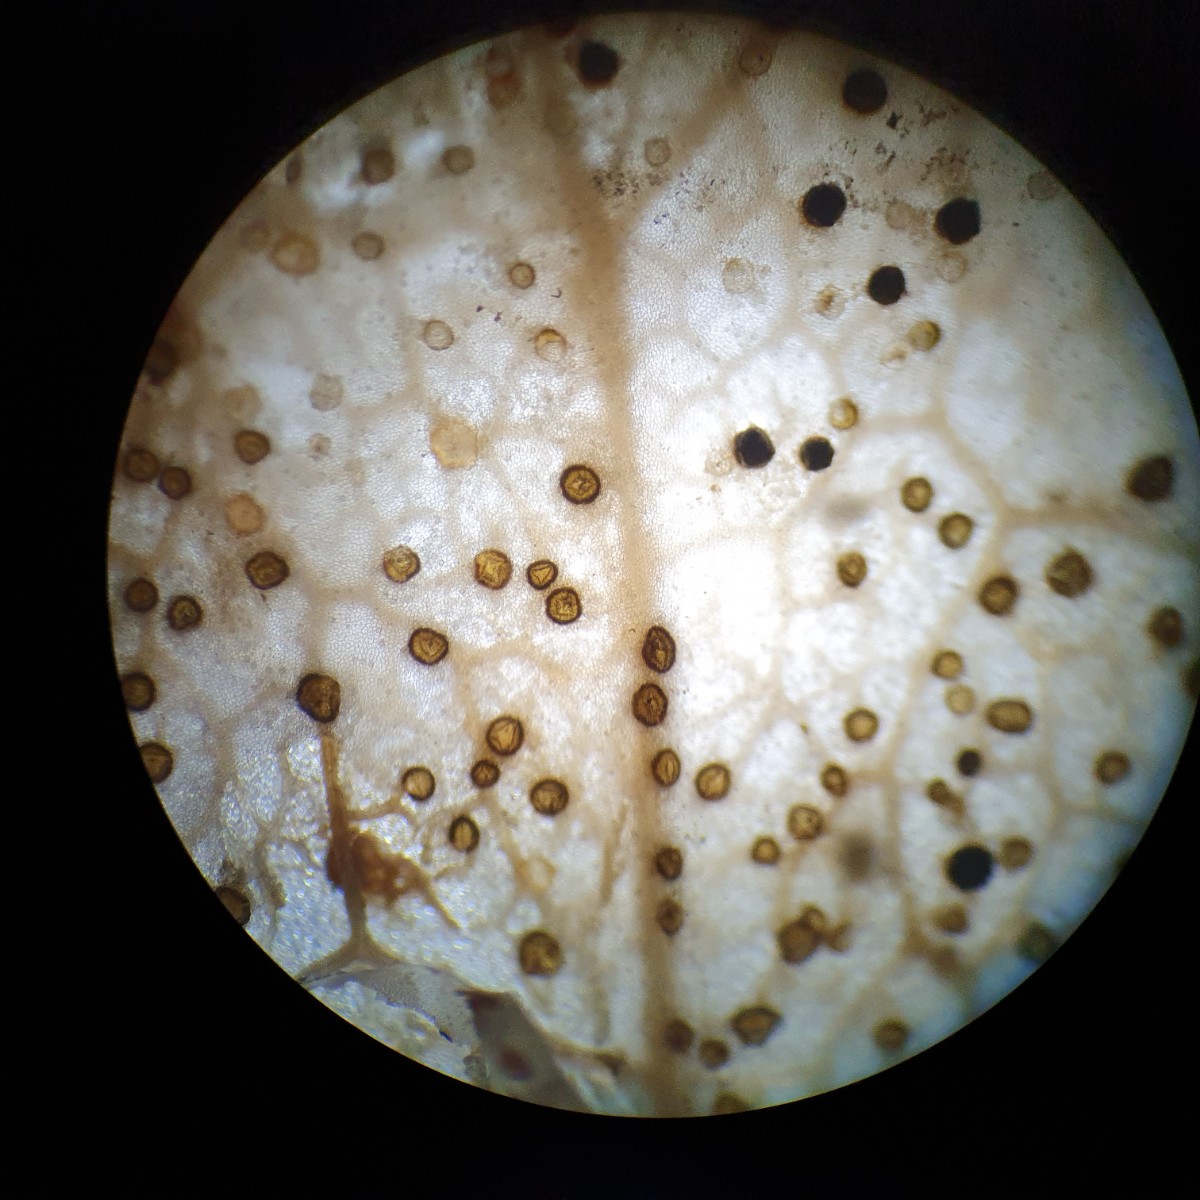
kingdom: Fungi
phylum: Ascomycota
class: Leotiomycetes
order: Rhytismatales
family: Rhytismataceae
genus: Hypoderma
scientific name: Hypoderma hederae
